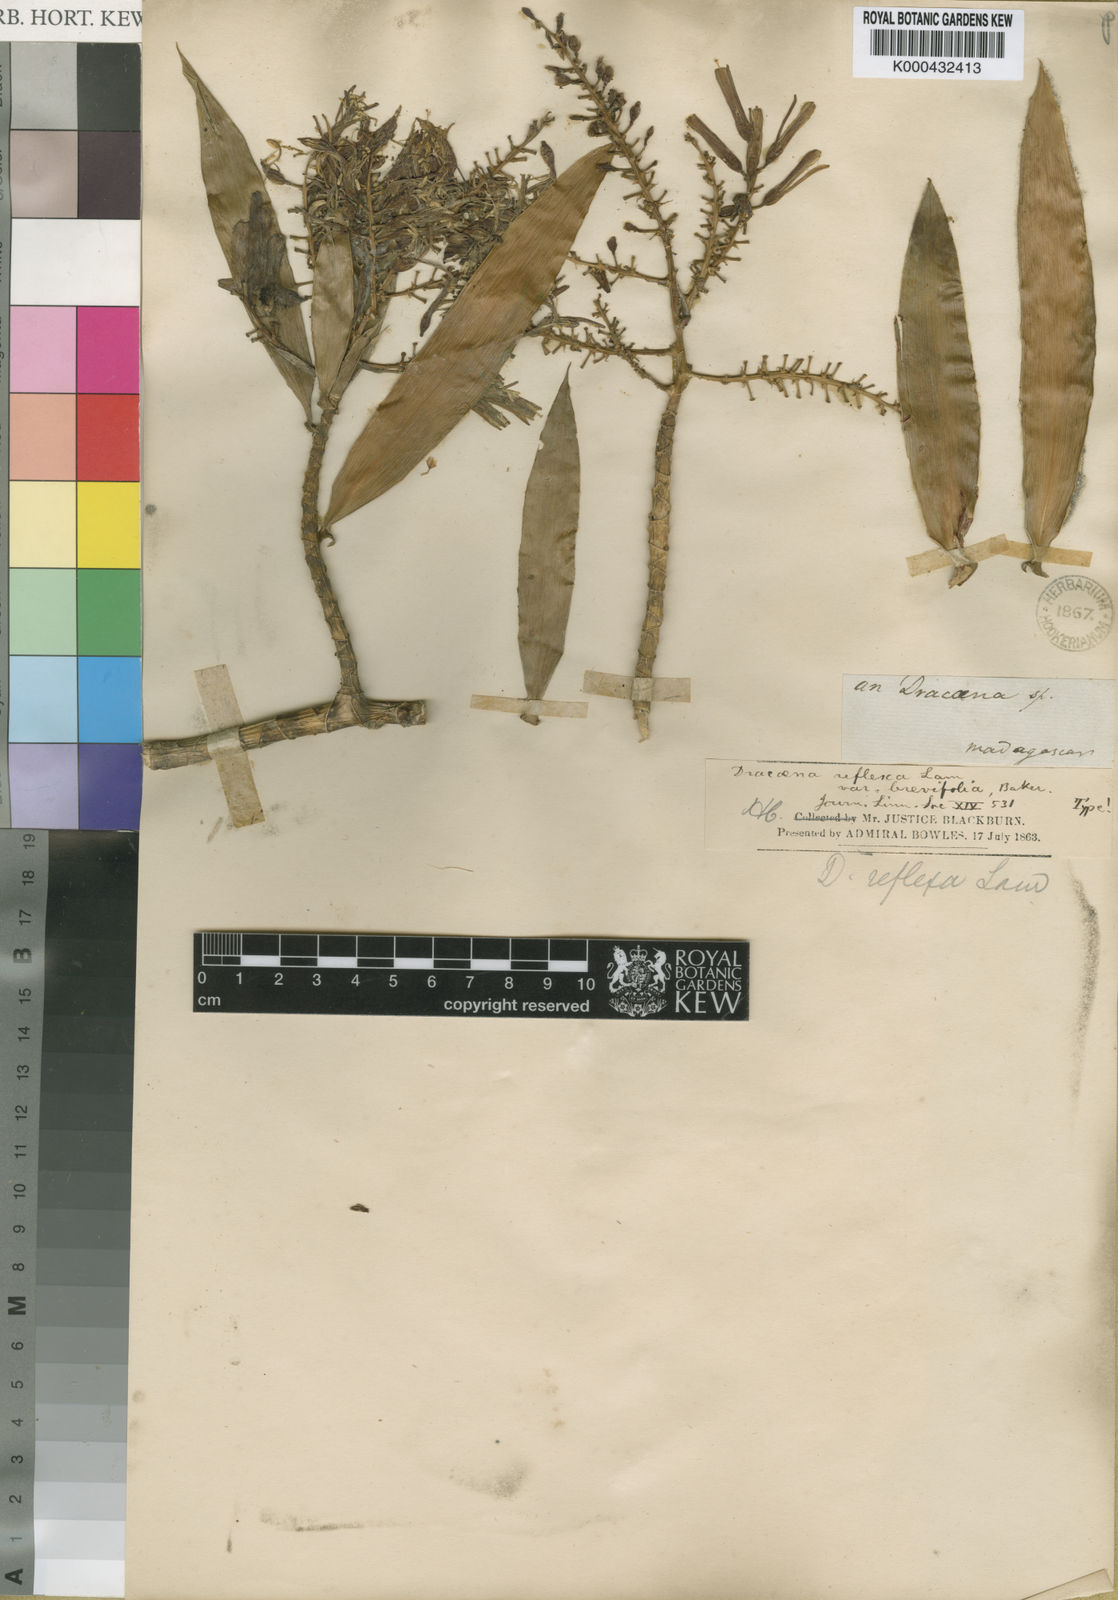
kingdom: Plantae
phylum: Tracheophyta
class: Liliopsida
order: Asparagales
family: Asparagaceae
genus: Dracaena
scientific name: Dracaena reflexa
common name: Song-of-india
